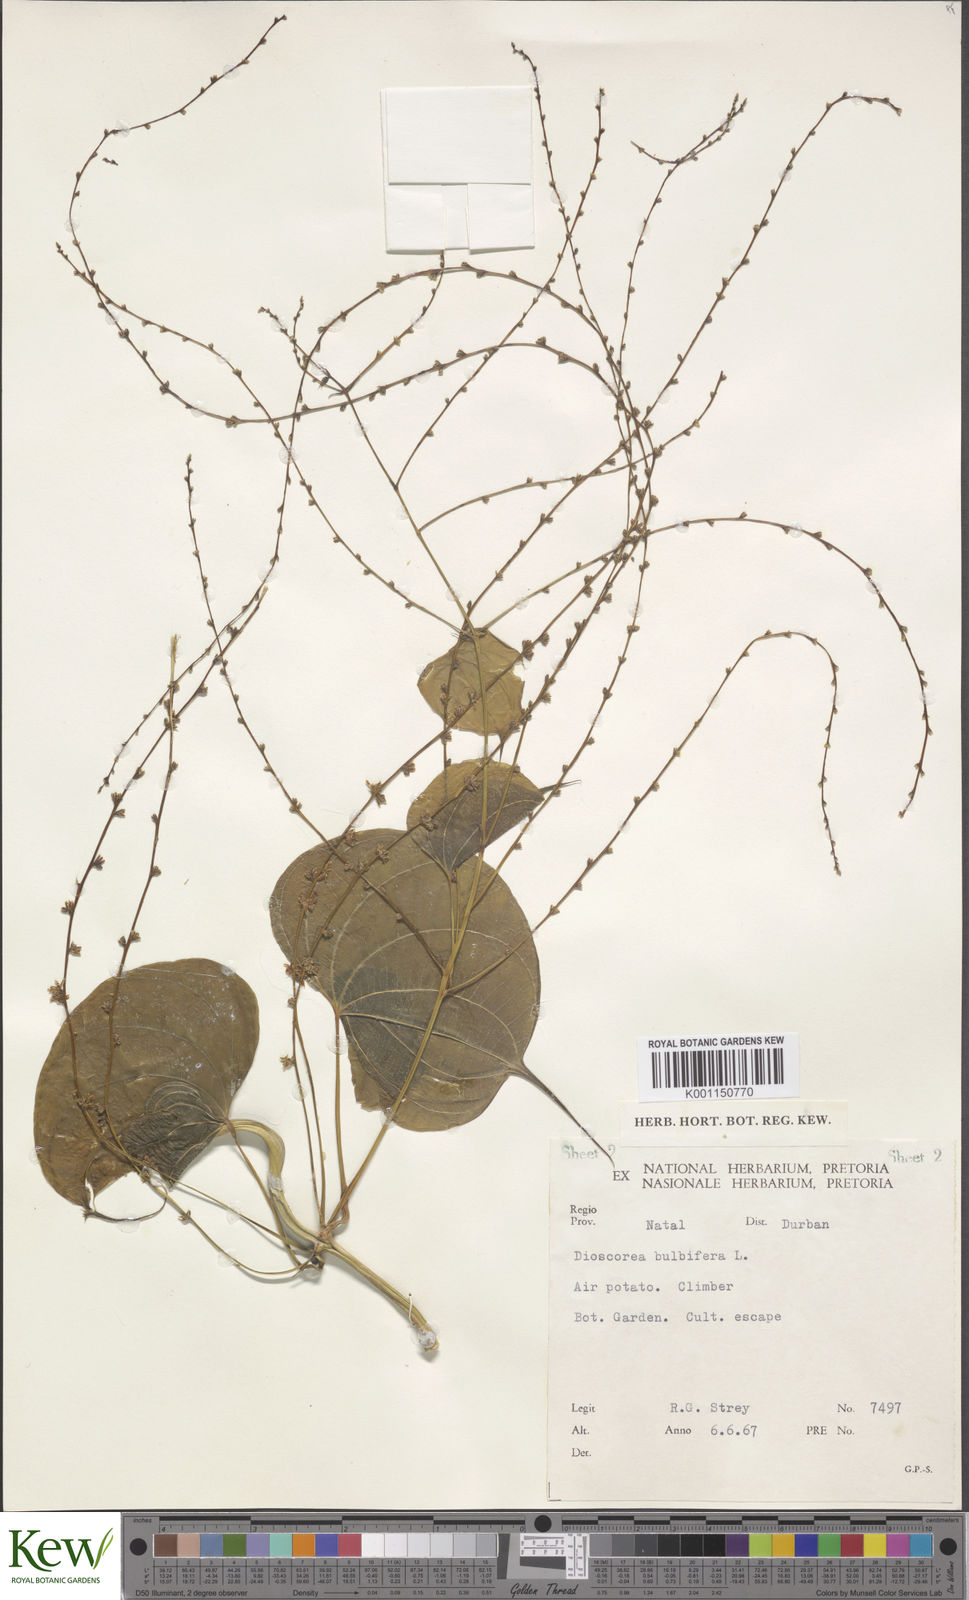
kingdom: Plantae
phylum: Tracheophyta
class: Liliopsida
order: Dioscoreales
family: Dioscoreaceae
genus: Dioscorea
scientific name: Dioscorea bulbifera
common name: Air yam
